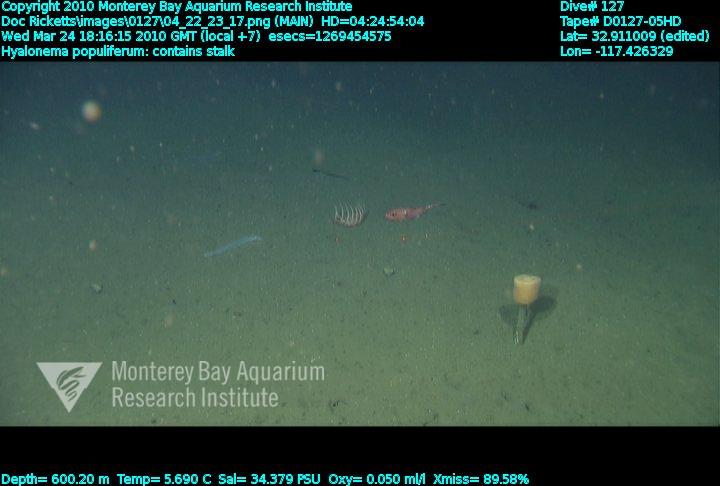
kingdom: Animalia
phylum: Porifera
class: Hexactinellida
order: Amphidiscosida
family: Hyalonematidae
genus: Hyalonema
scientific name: Hyalonema populiferum
